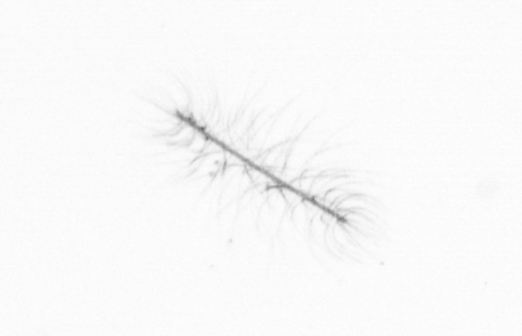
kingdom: Chromista
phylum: Ochrophyta
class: Bacillariophyceae
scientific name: Bacillariophyceae
